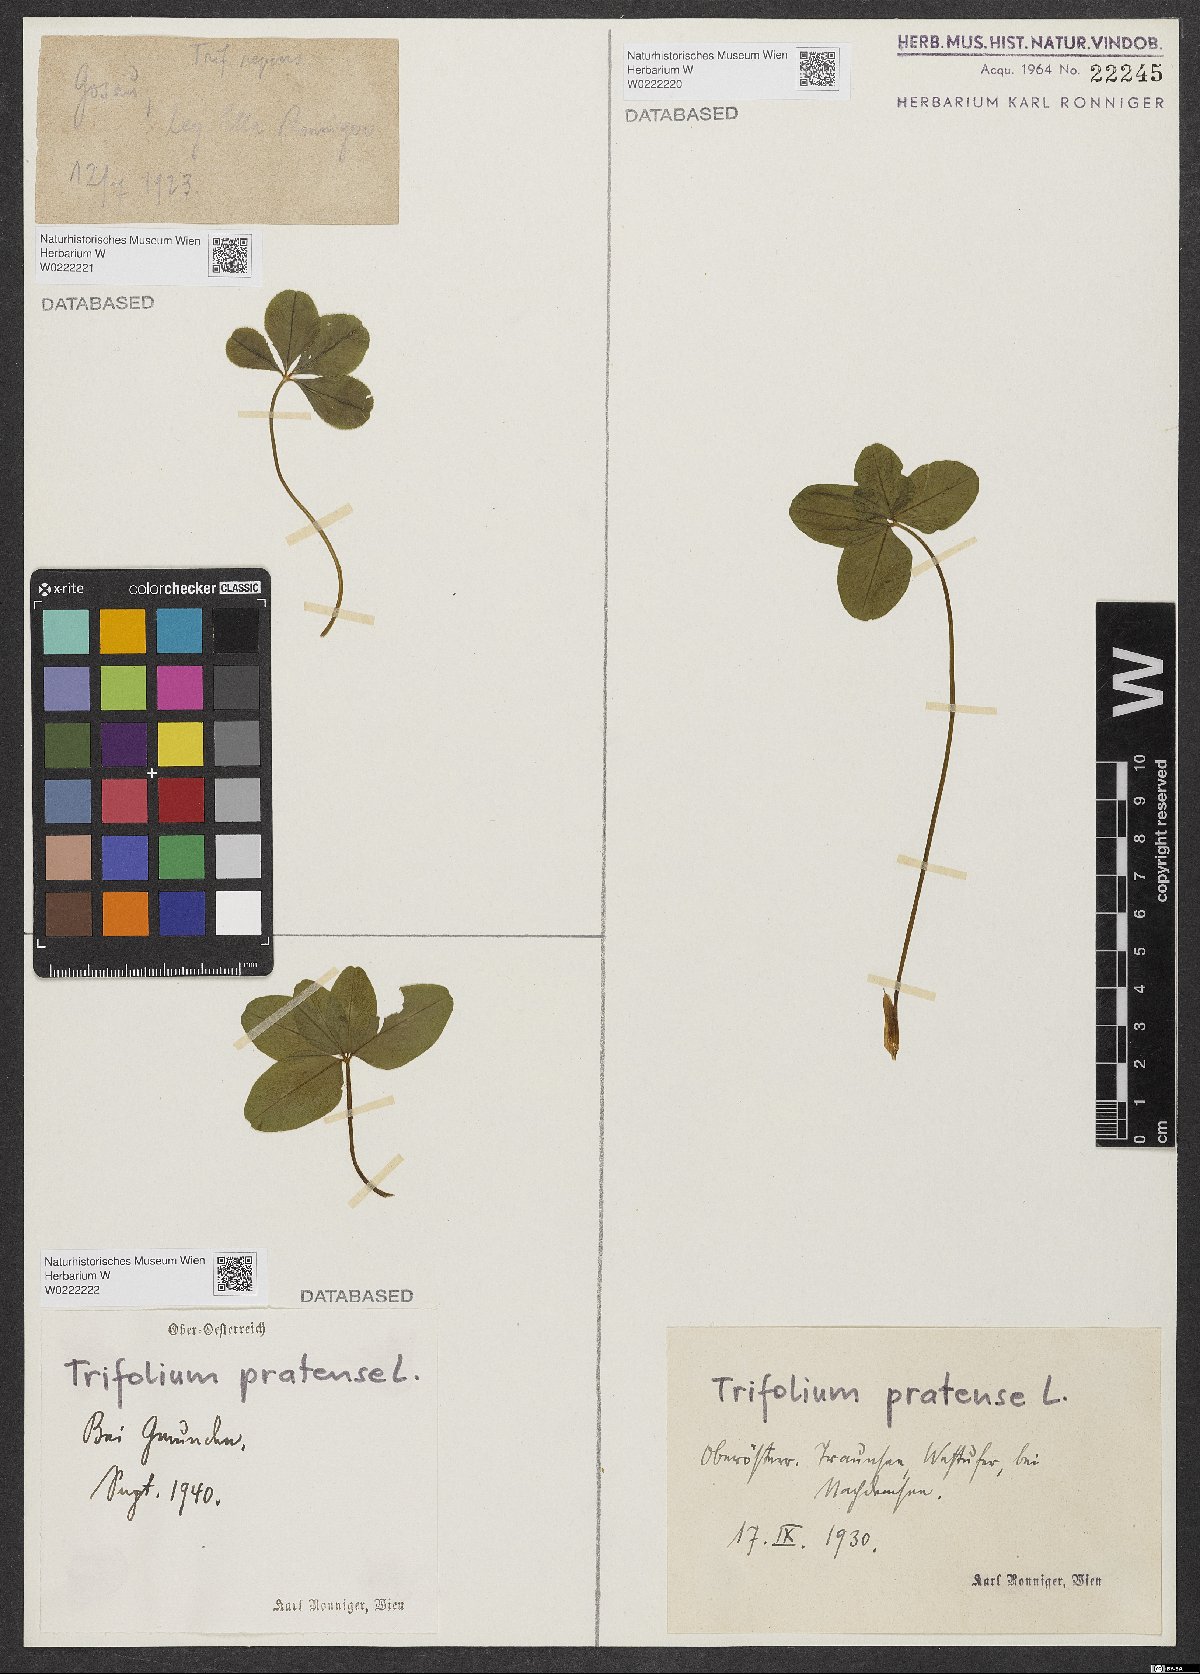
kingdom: Plantae
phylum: Tracheophyta
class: Magnoliopsida
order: Fabales
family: Fabaceae
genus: Trifolium
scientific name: Trifolium pratense
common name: Red clover
